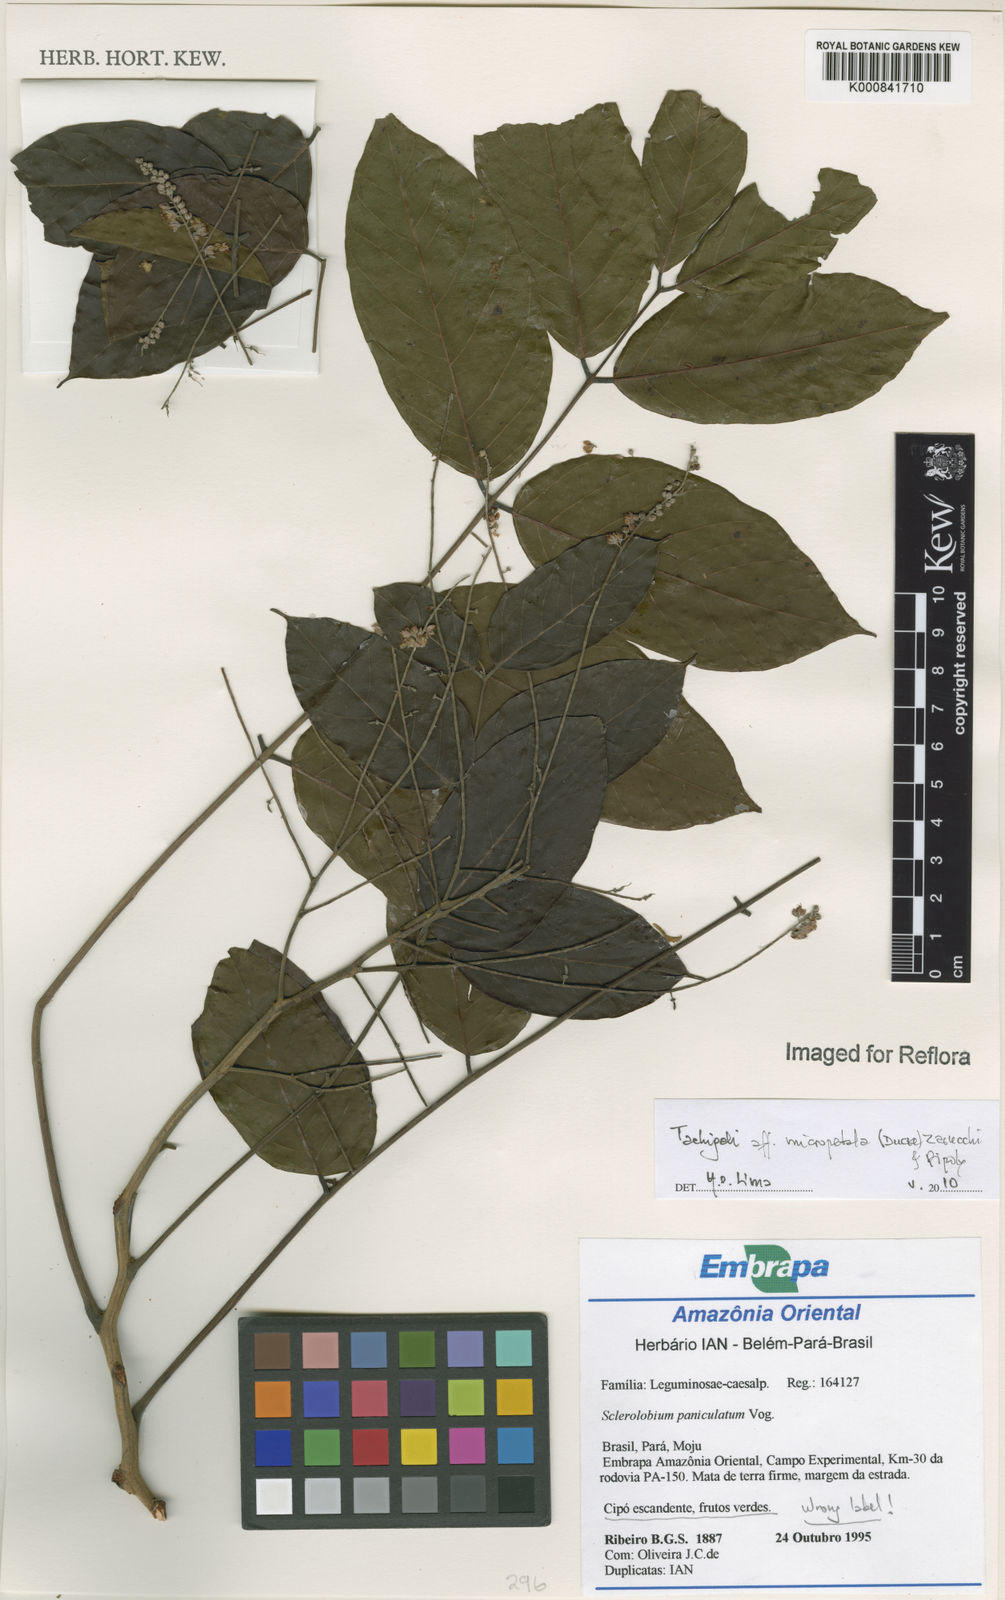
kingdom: Plantae
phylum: Tracheophyta
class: Magnoliopsida
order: Fabales
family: Fabaceae
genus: Tachigali
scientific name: Tachigali micropetala
